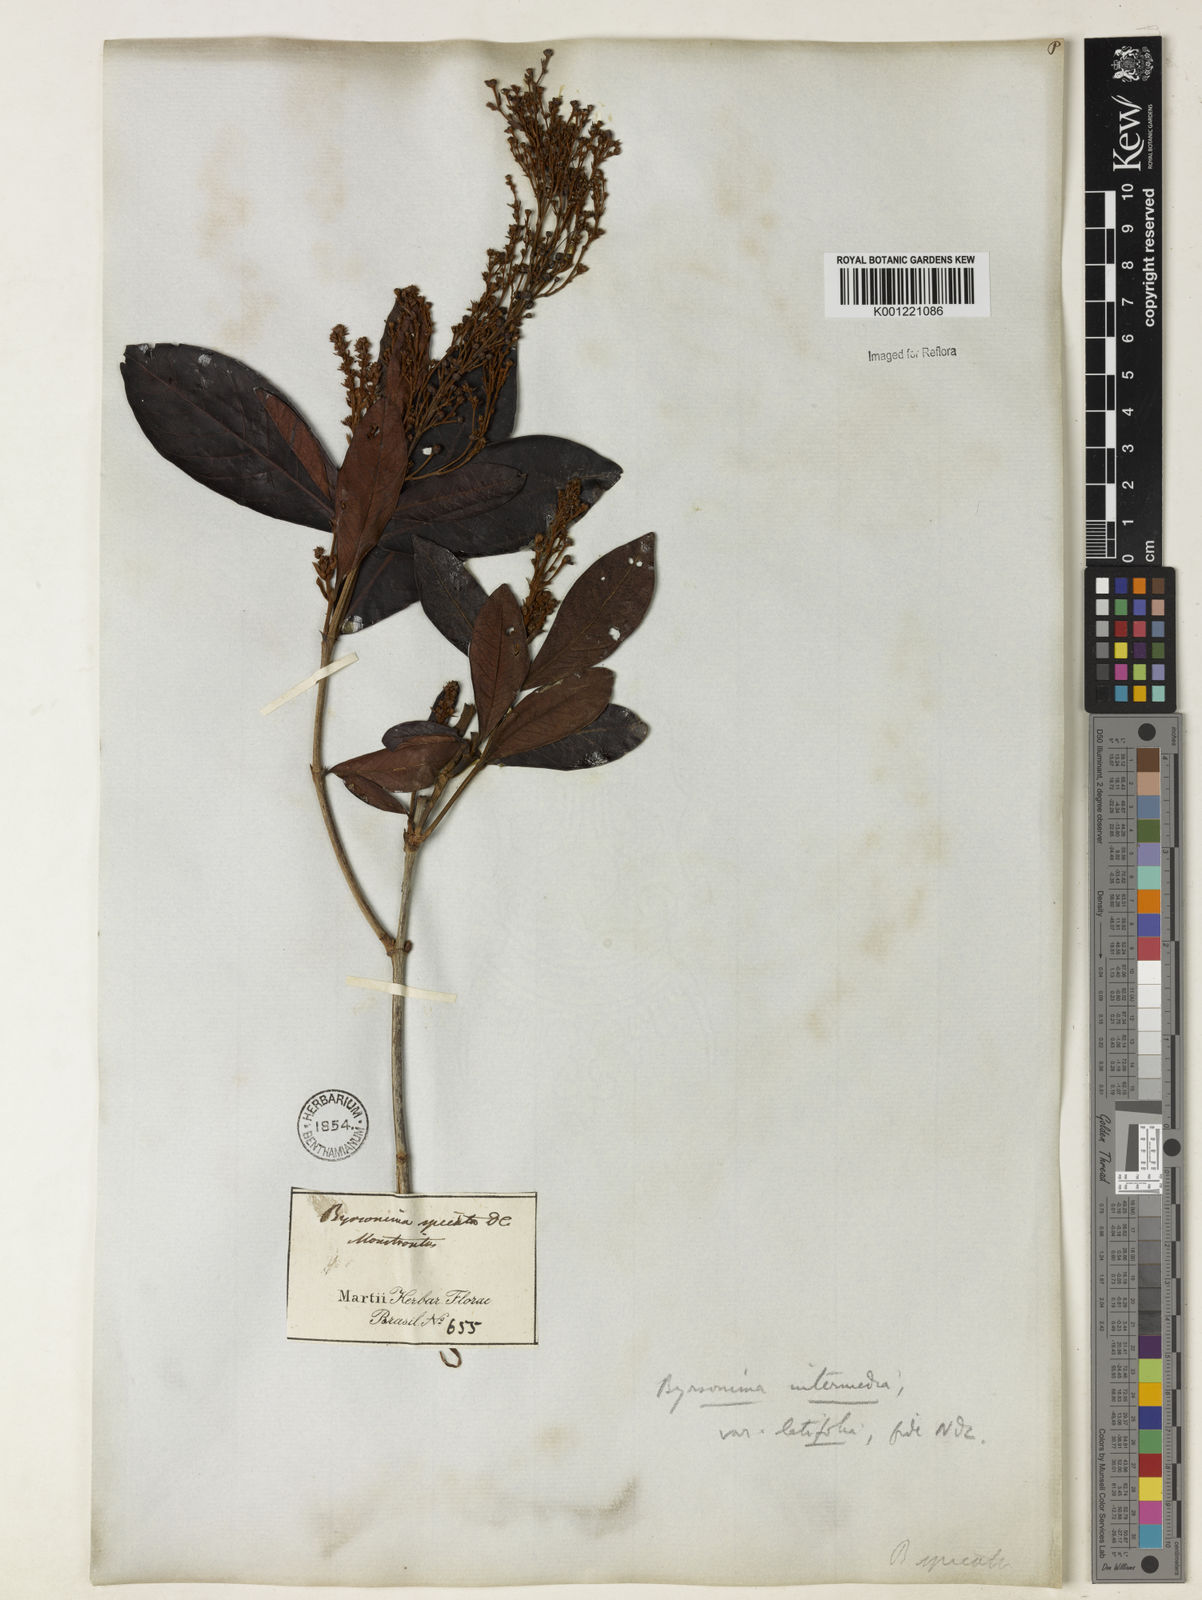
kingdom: Plantae
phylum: Tracheophyta
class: Magnoliopsida
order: Malpighiales
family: Malpighiaceae
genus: Byrsonima
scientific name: Byrsonima intermedia
